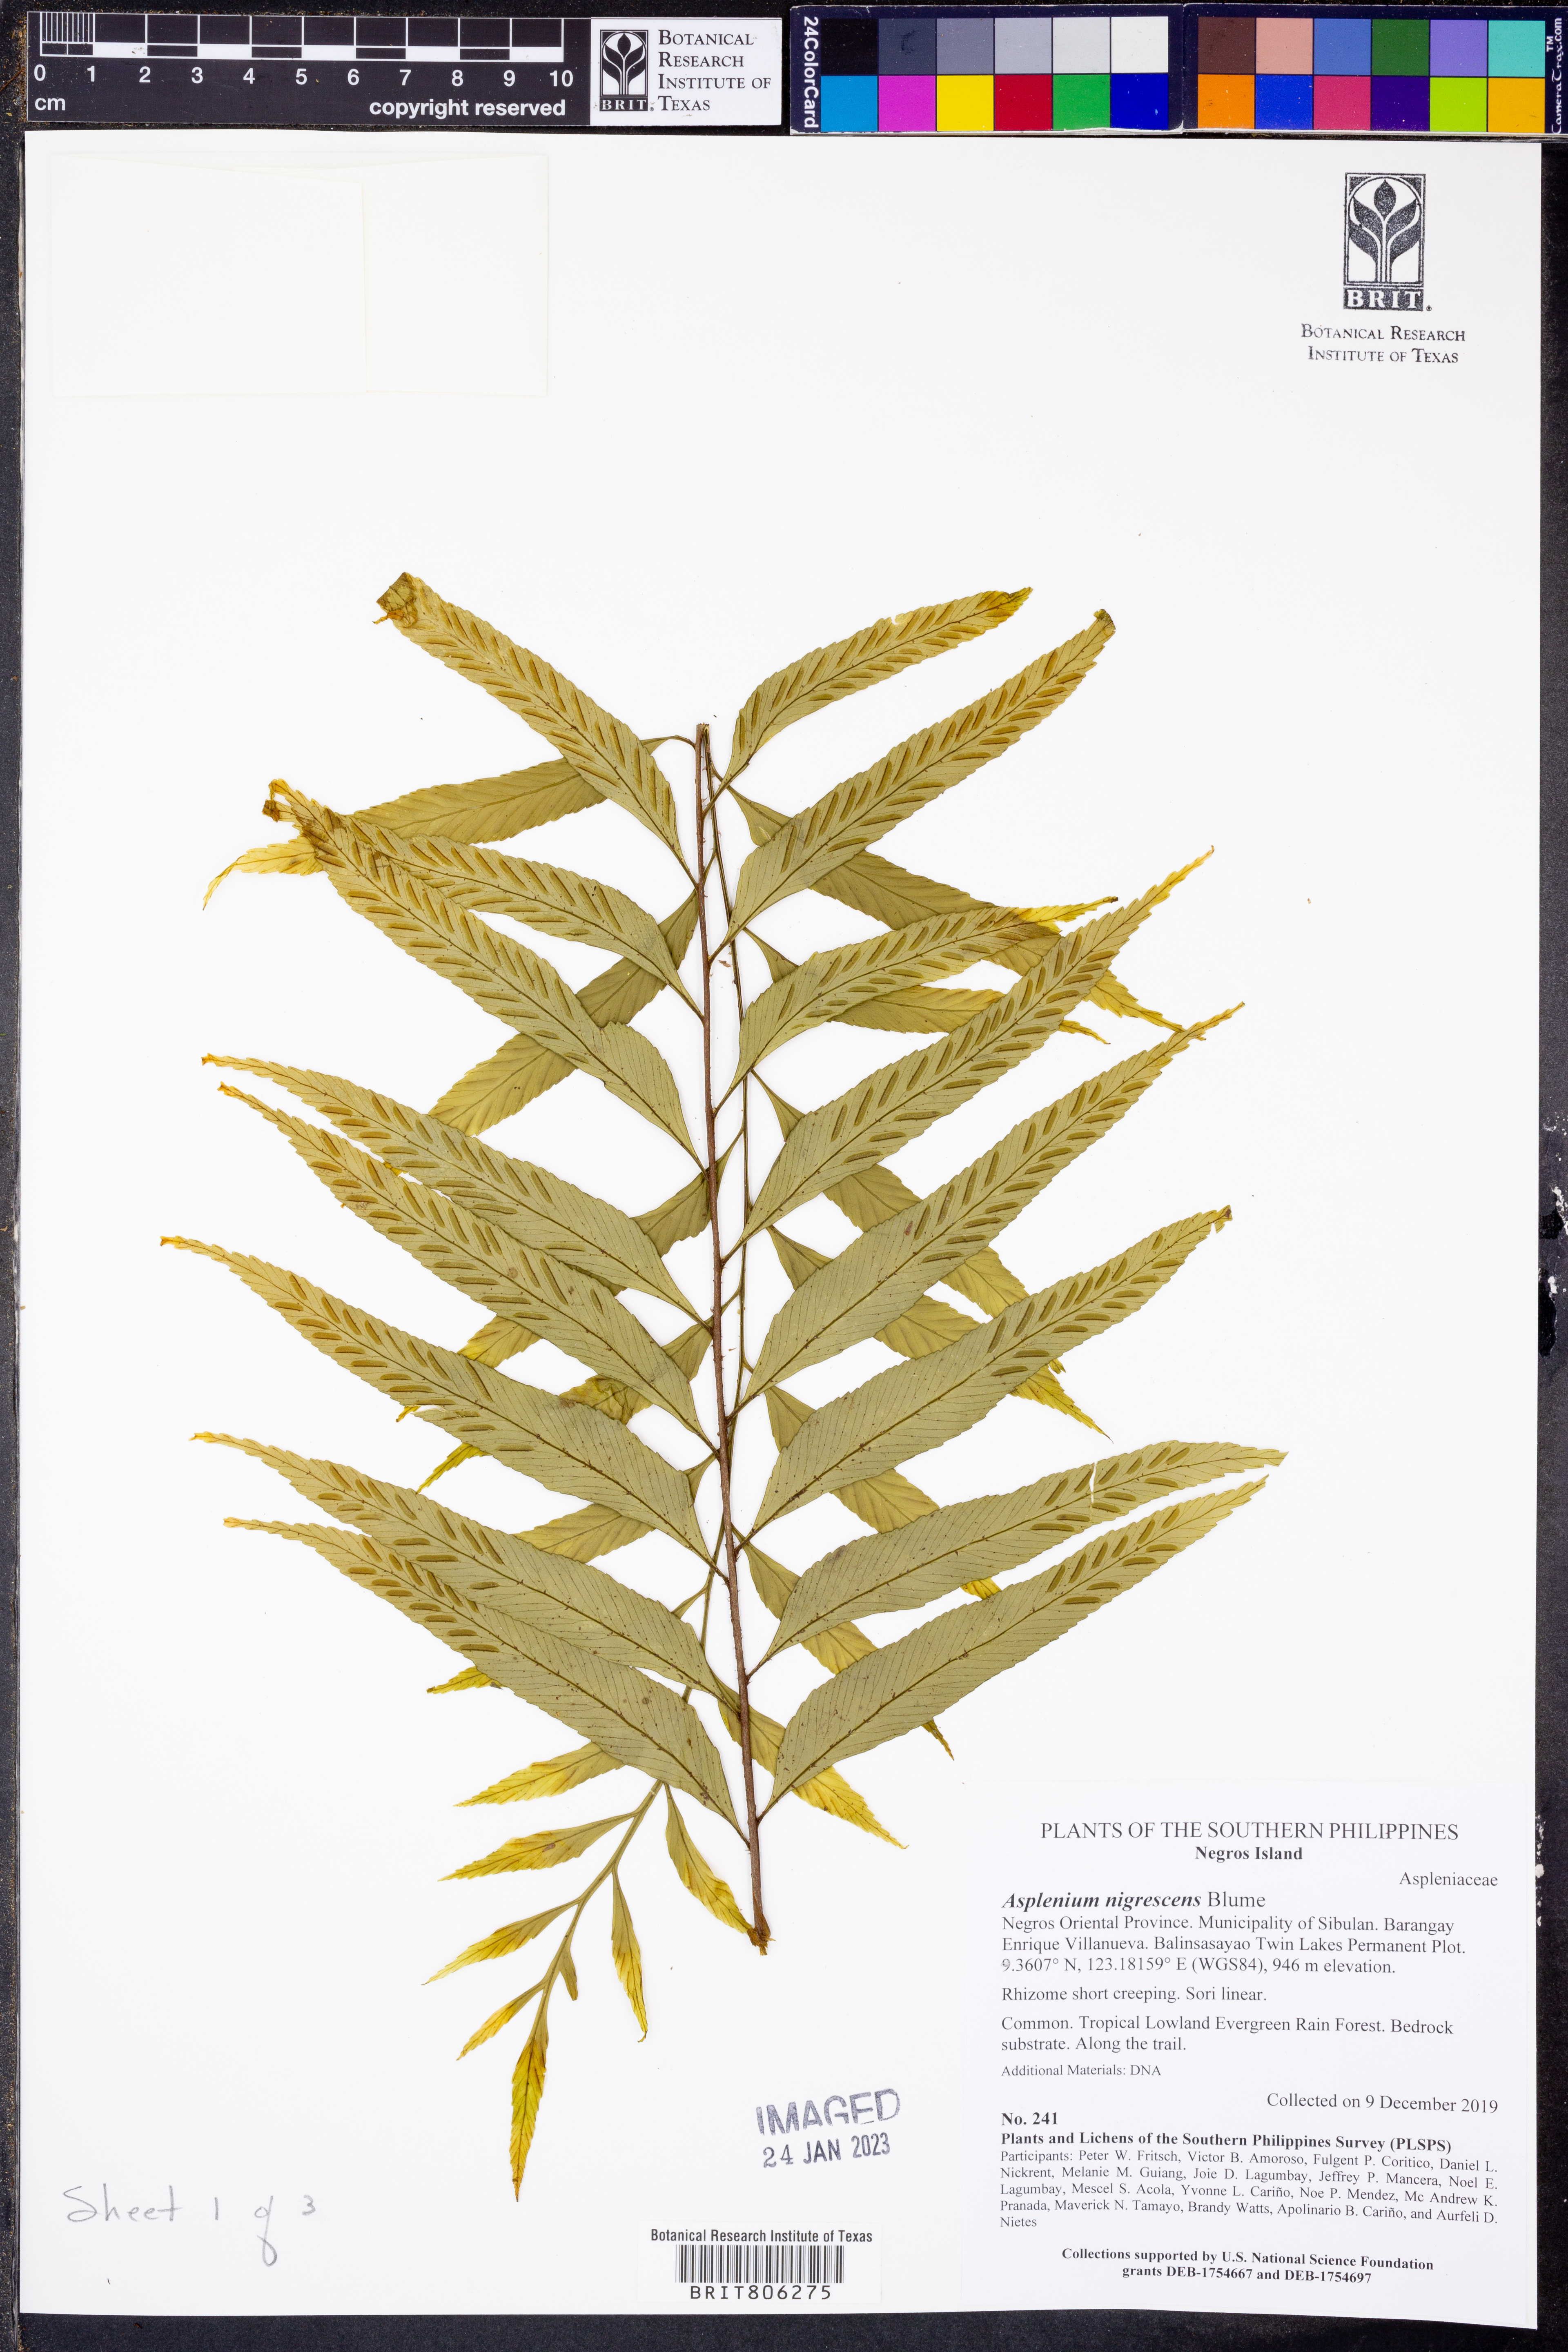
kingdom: Plantae
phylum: Tracheophyta
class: Polypodiopsida
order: Polypodiales
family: Aspleniaceae
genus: Asplenium
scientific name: Asplenium nigrescens
